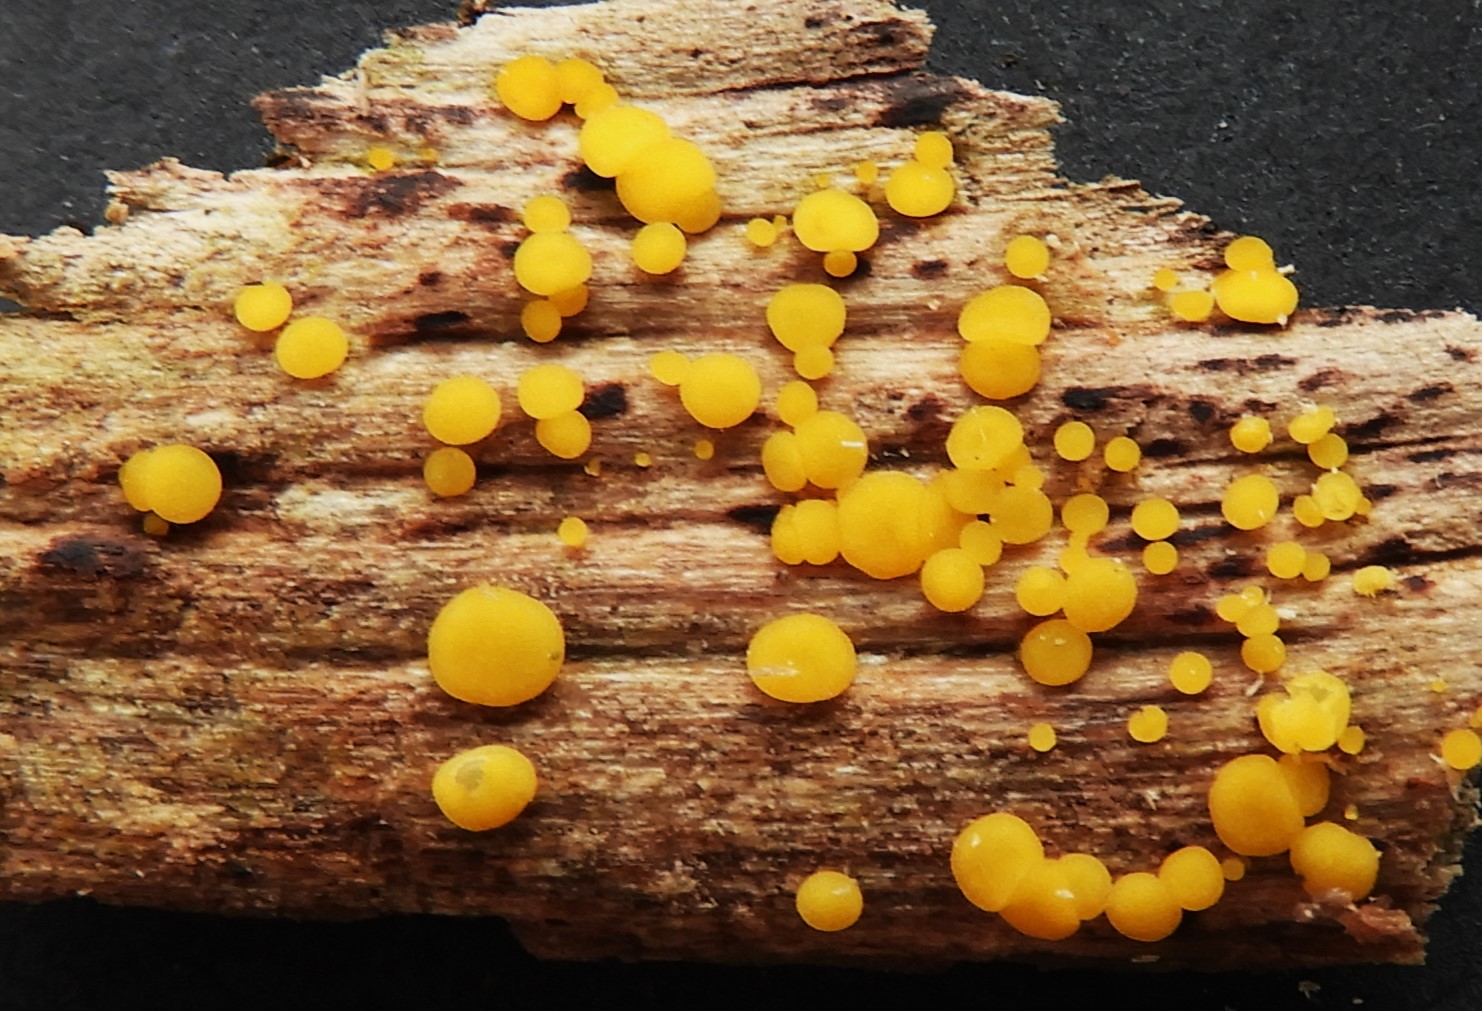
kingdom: Fungi
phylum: Ascomycota
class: Leotiomycetes
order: Helotiales
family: Pezizellaceae
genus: Calycina
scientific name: Calycina citrina
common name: almindelig gulskive
